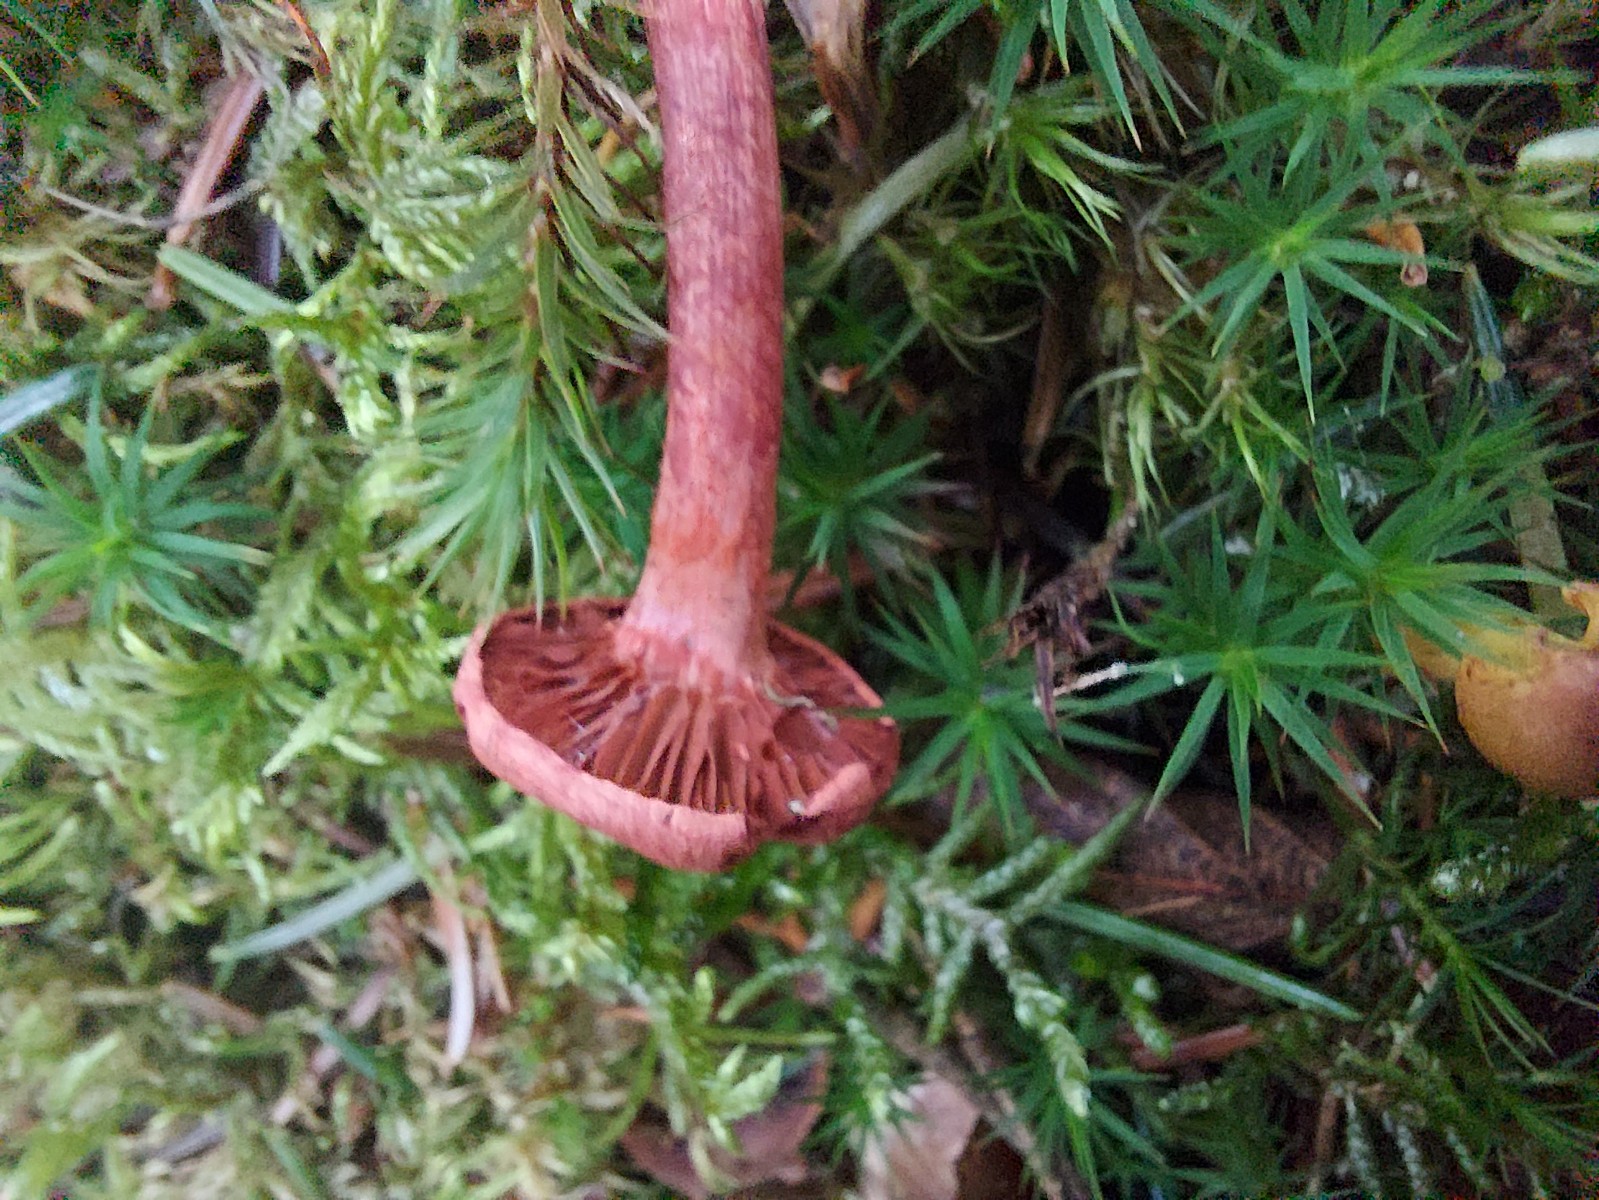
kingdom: Fungi
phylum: Basidiomycota
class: Agaricomycetes
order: Agaricales
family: Cortinariaceae
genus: Cortinarius
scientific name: Cortinarius
